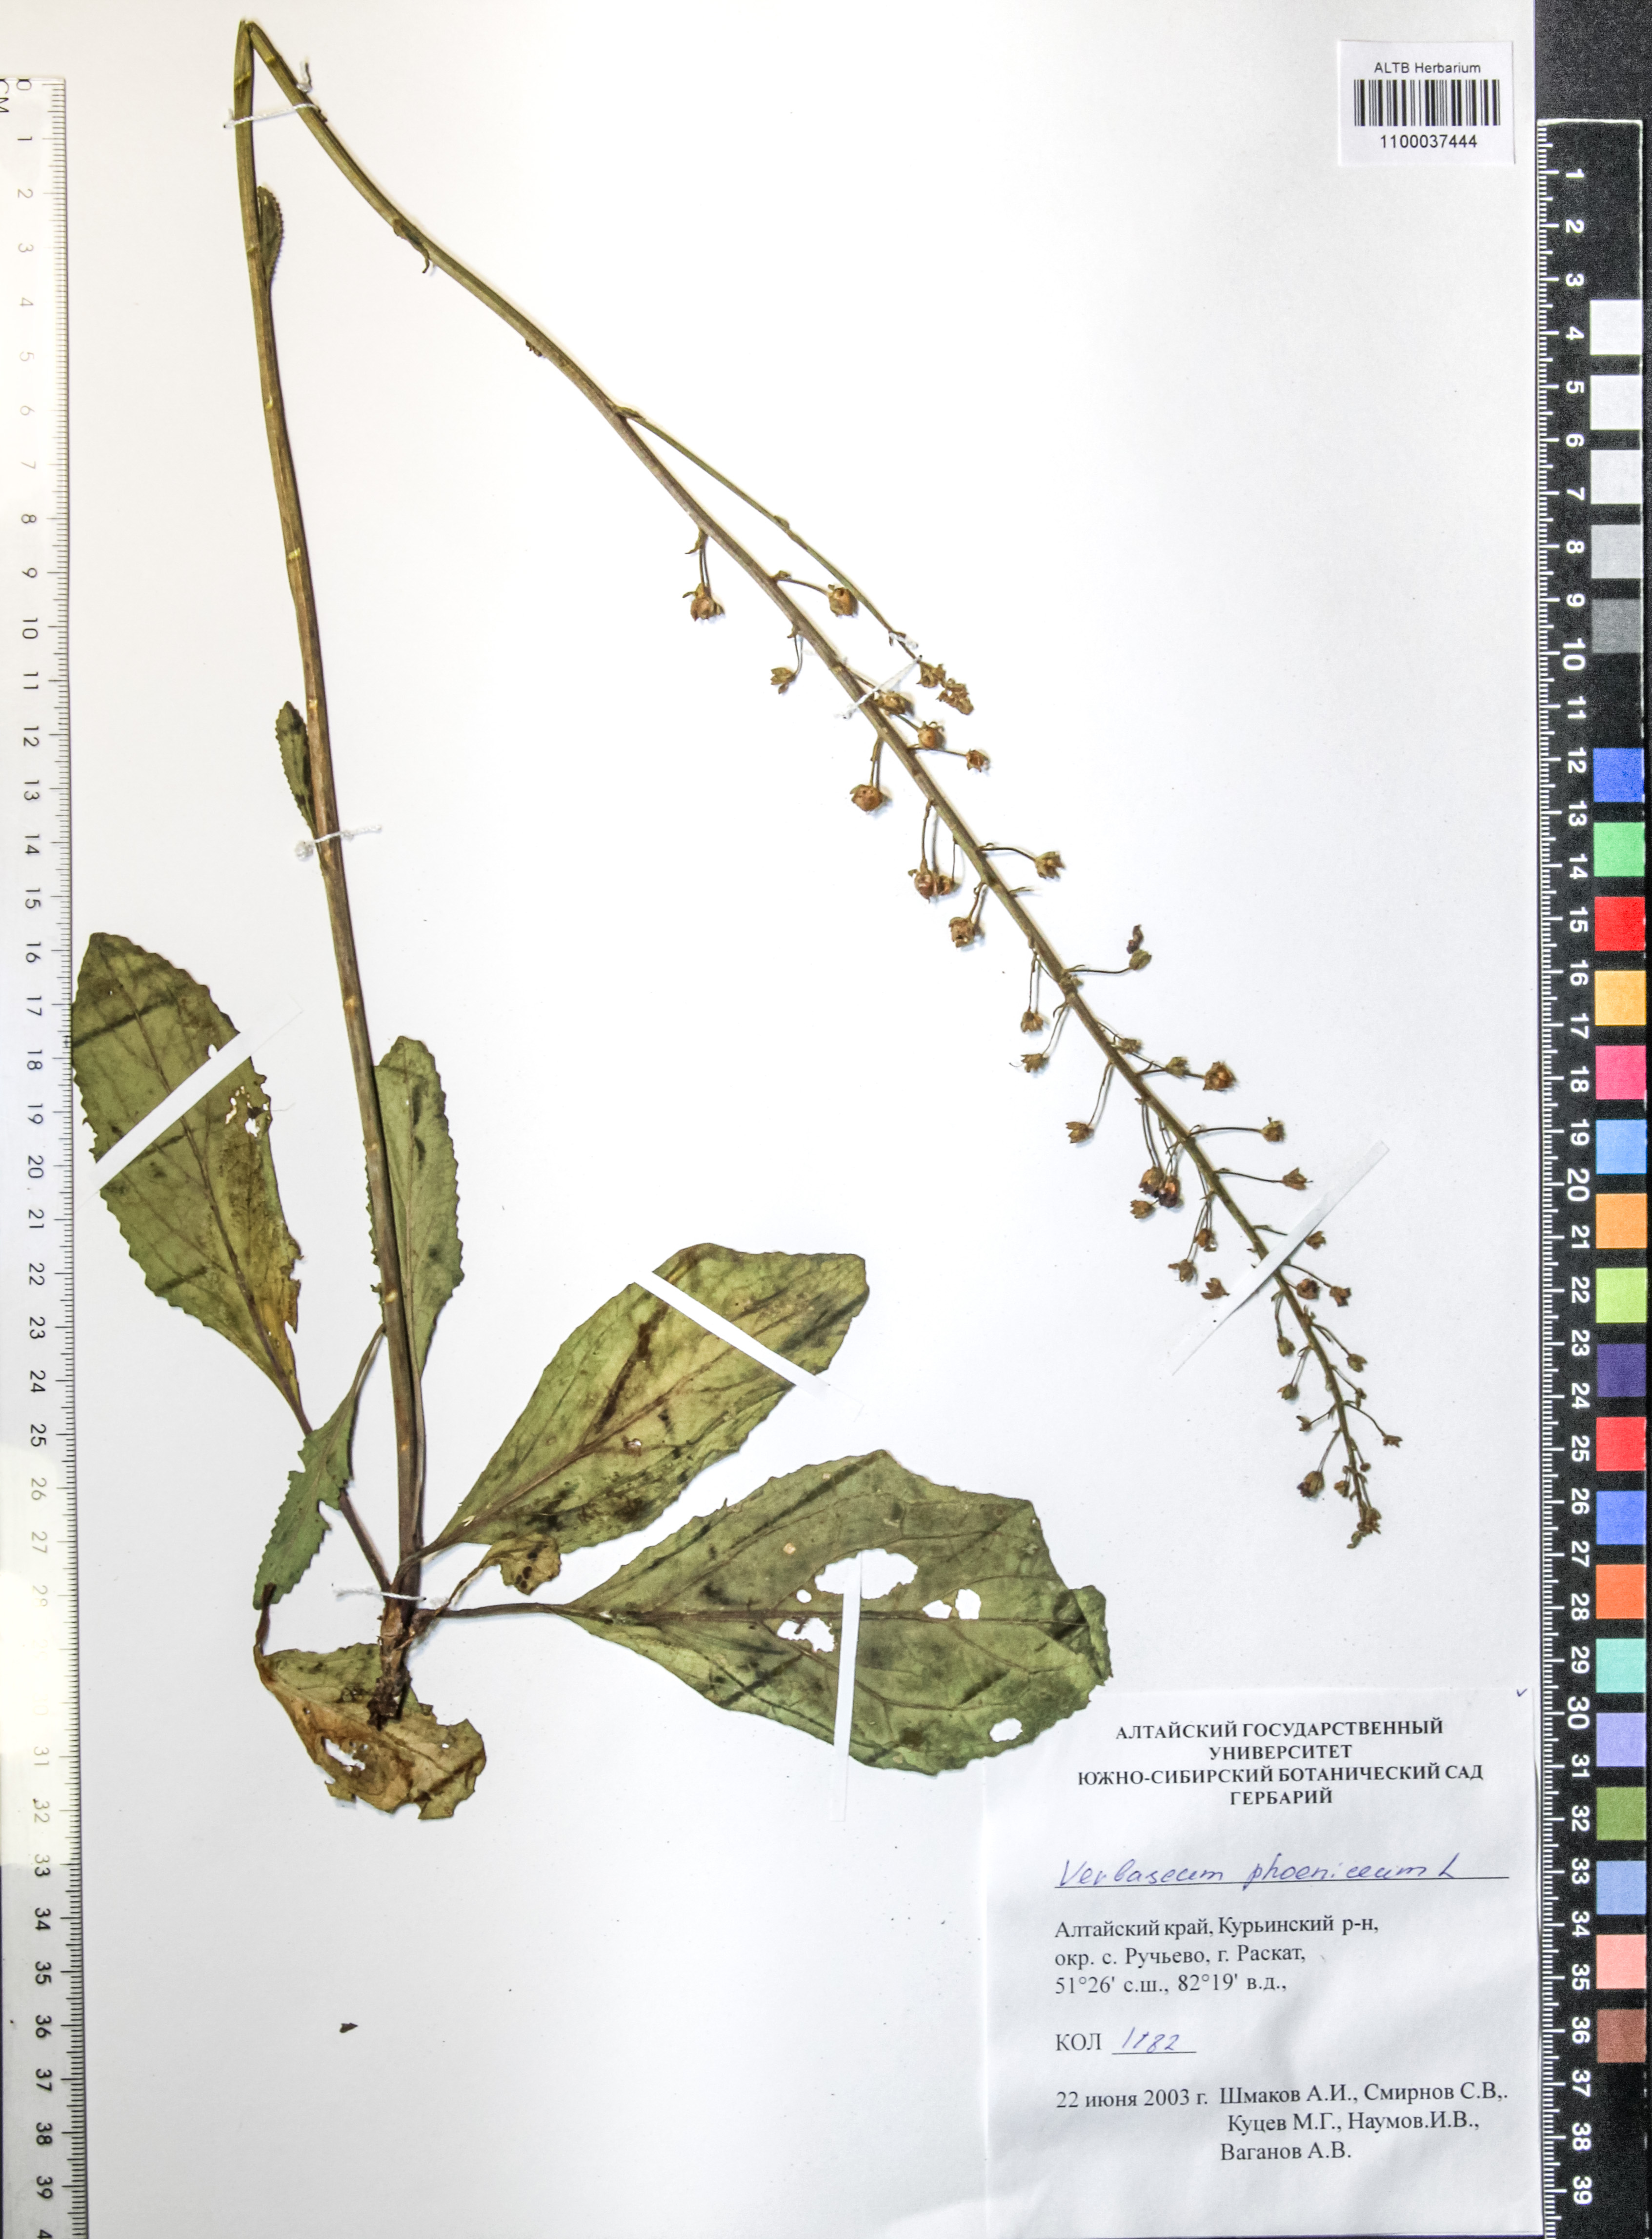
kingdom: Plantae
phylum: Tracheophyta
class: Magnoliopsida
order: Lamiales
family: Scrophulariaceae
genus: Verbascum
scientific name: Verbascum phoeniceum
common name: Purple mullein
